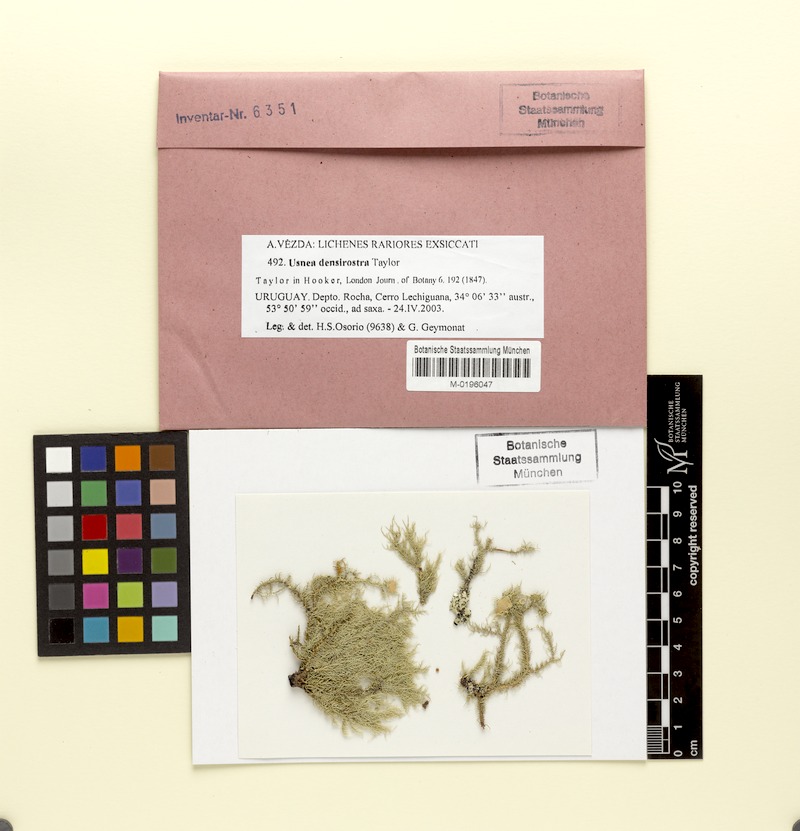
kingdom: Fungi
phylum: Ascomycota
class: Lecanoromycetes
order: Lecanorales
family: Parmeliaceae
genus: Usnea
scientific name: Usnea densirostra
